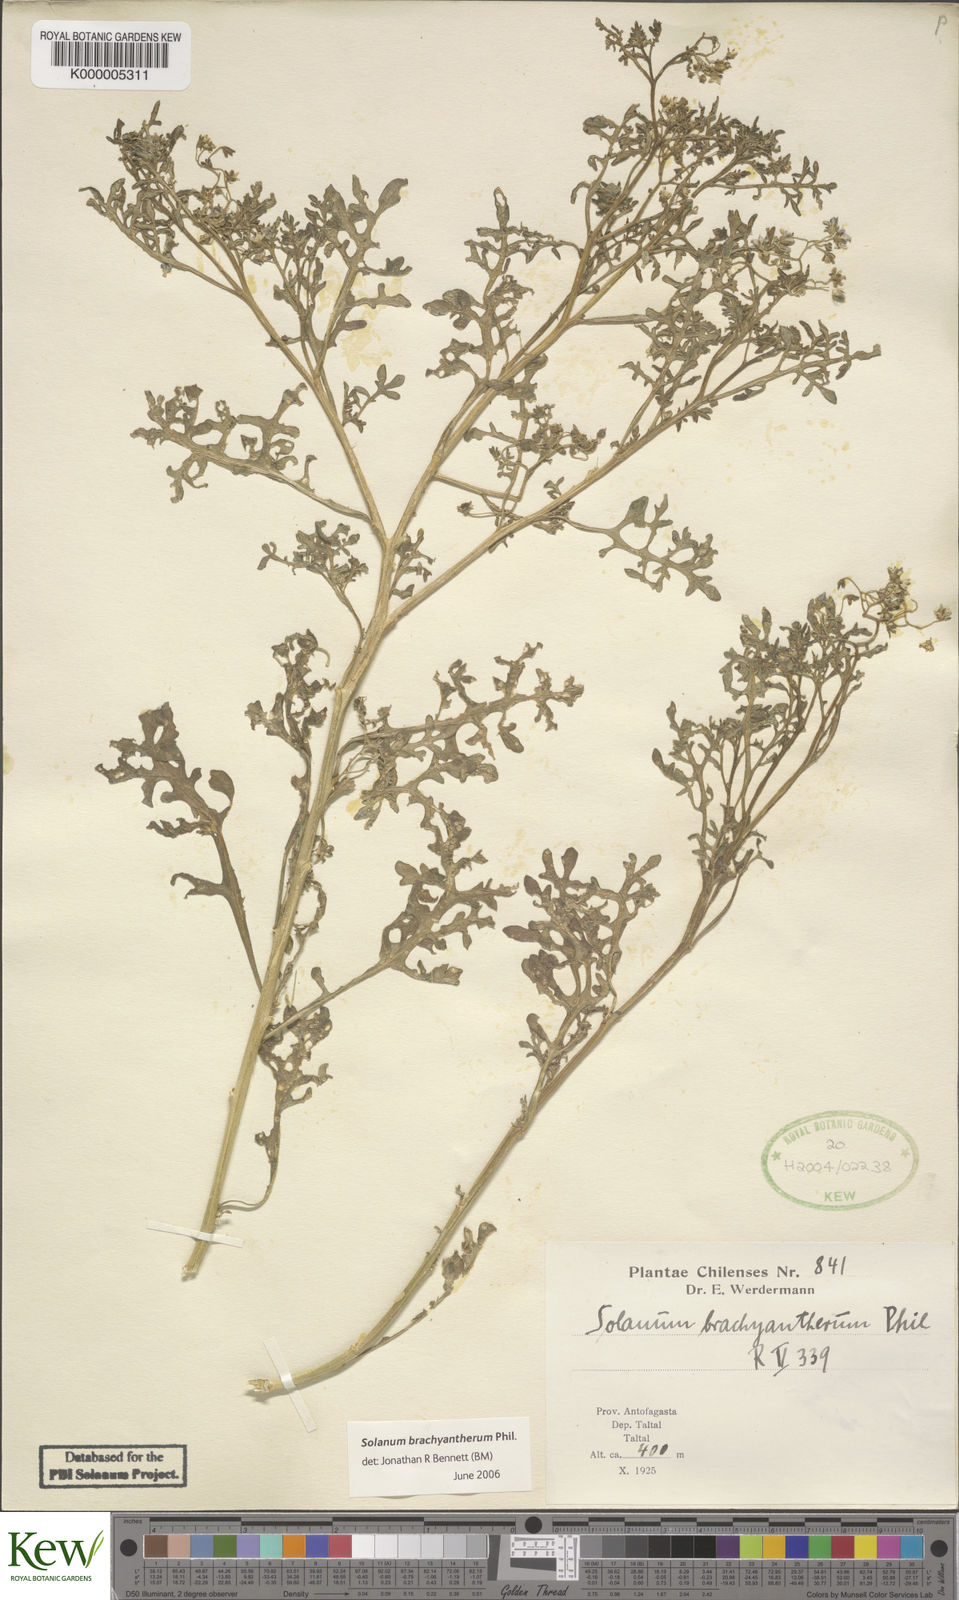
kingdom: Plantae
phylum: Tracheophyta
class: Magnoliopsida
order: Solanales
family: Solanaceae
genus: Solanum
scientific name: Solanum brachyantherum
